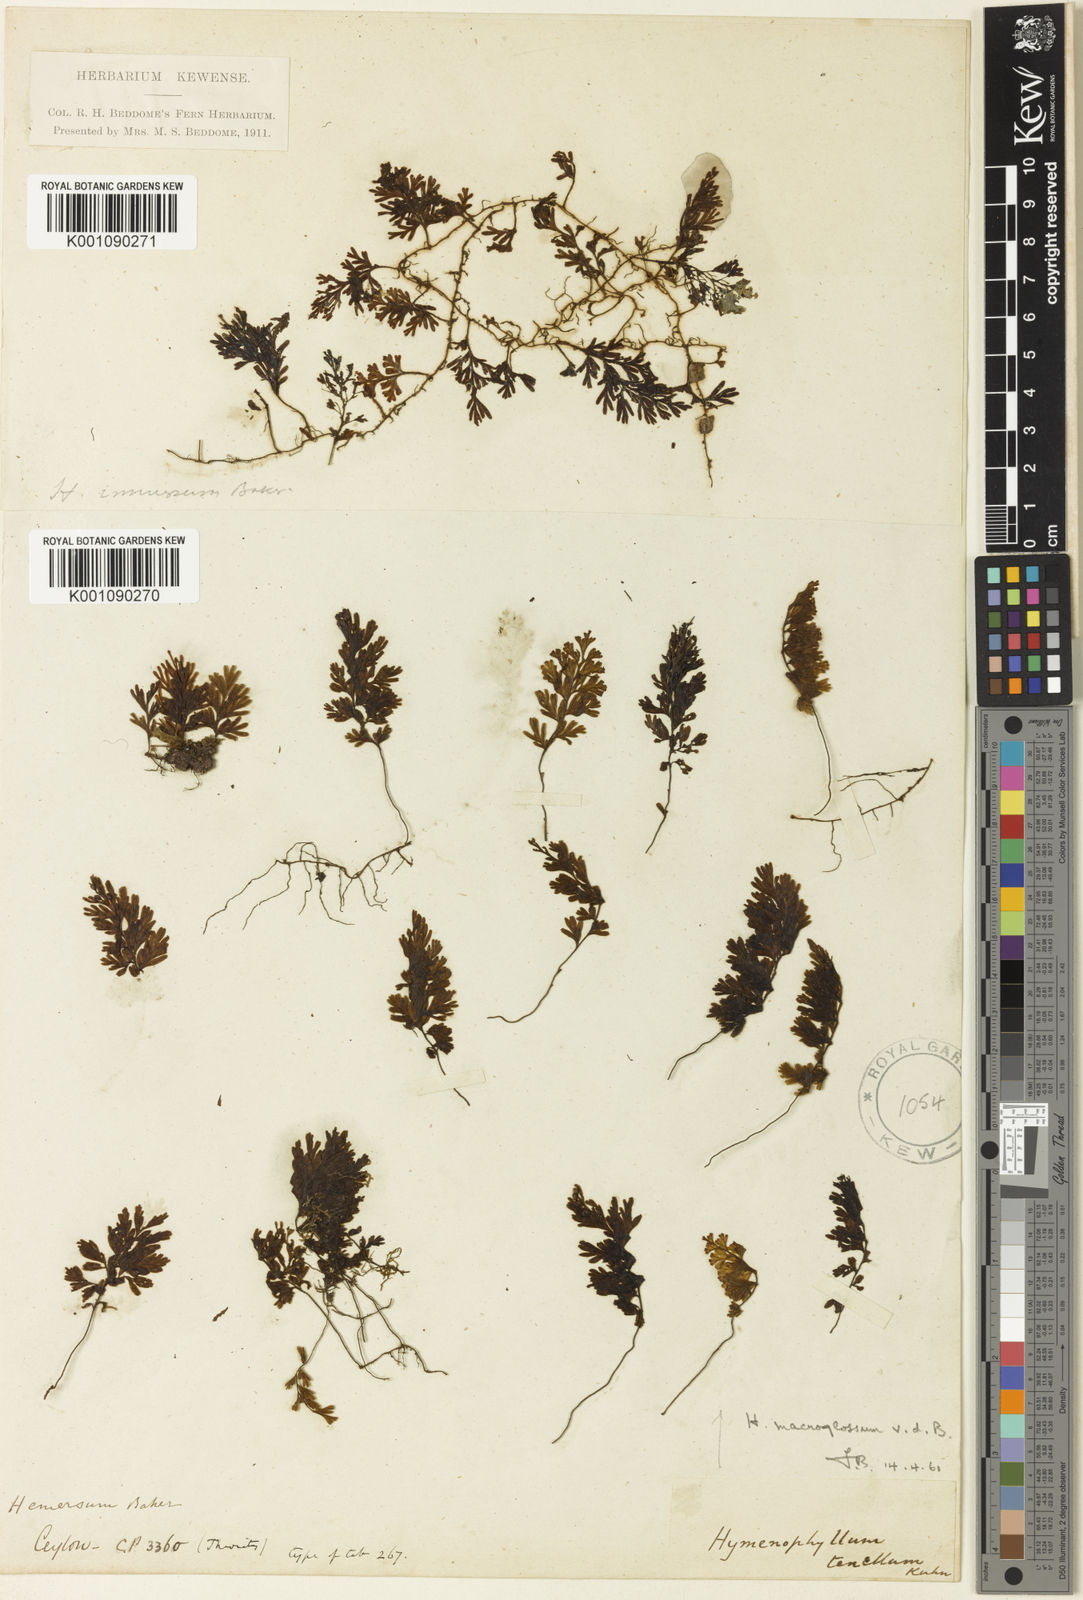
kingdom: Plantae
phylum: Tracheophyta
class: Polypodiopsida
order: Hymenophyllales
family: Hymenophyllaceae
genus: Hymenophyllum
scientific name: Hymenophyllum macroglossum
